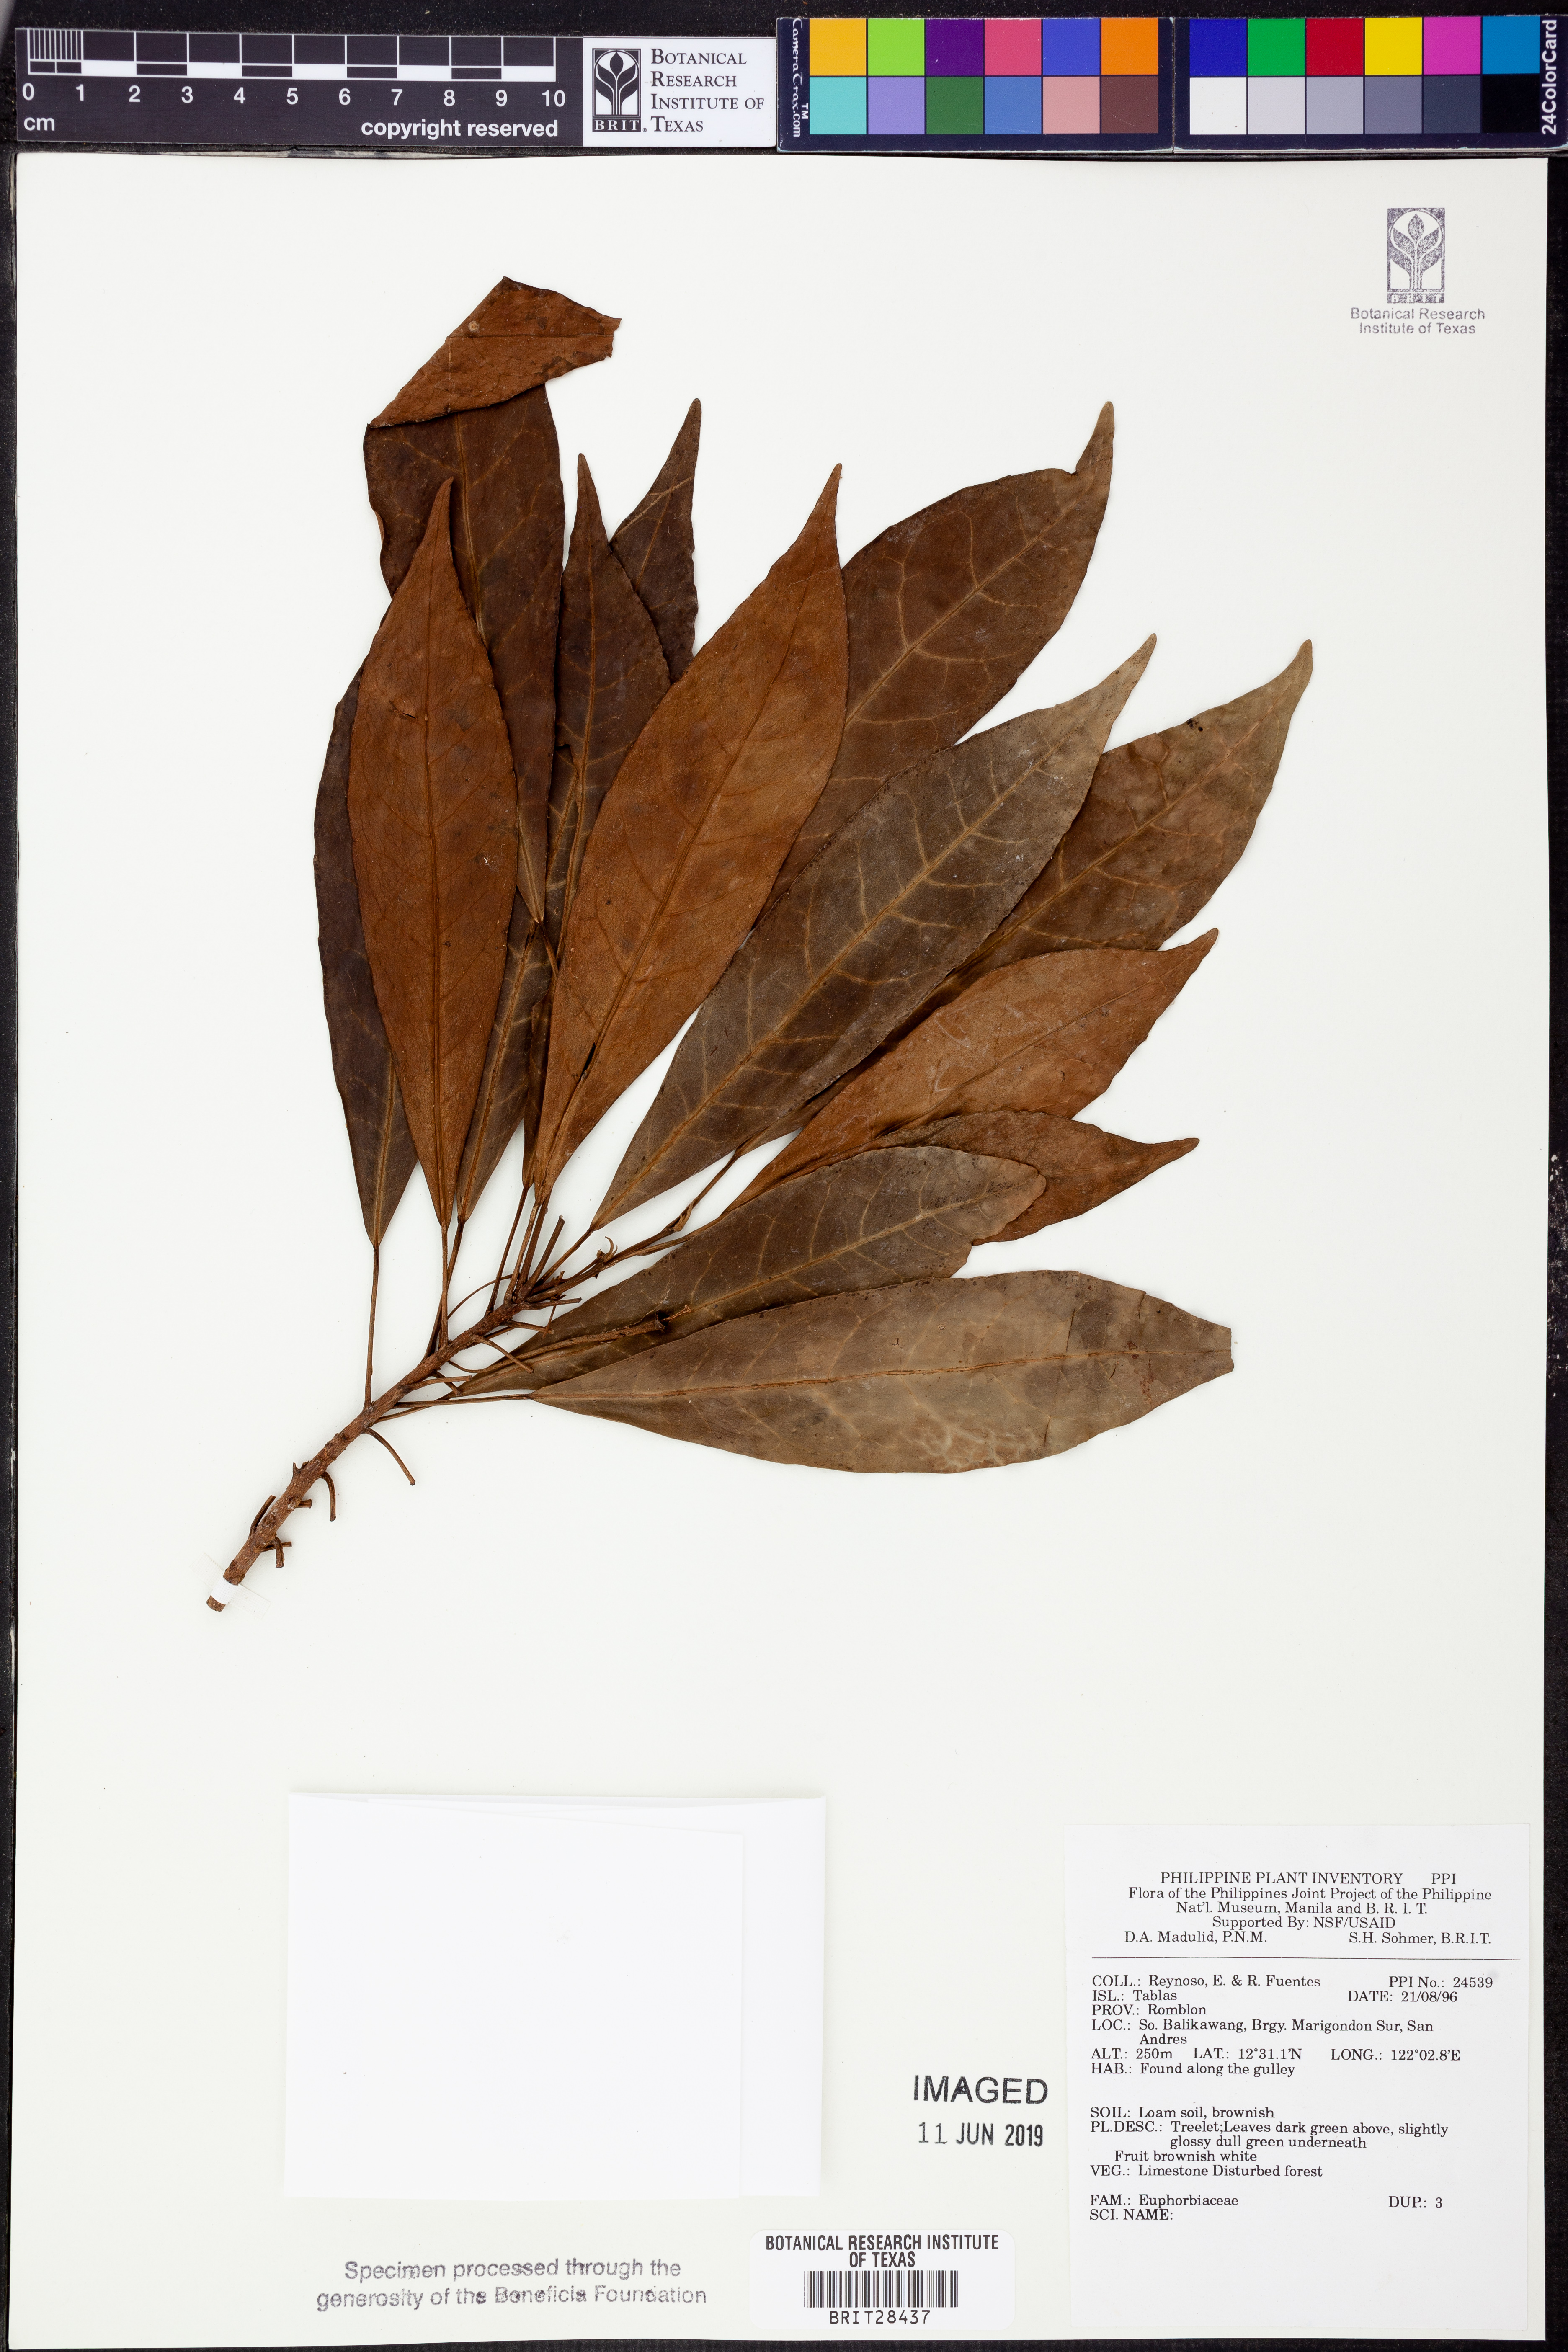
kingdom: Plantae
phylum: Tracheophyta
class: Magnoliopsida
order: Malpighiales
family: Euphorbiaceae
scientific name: Euphorbiaceae
